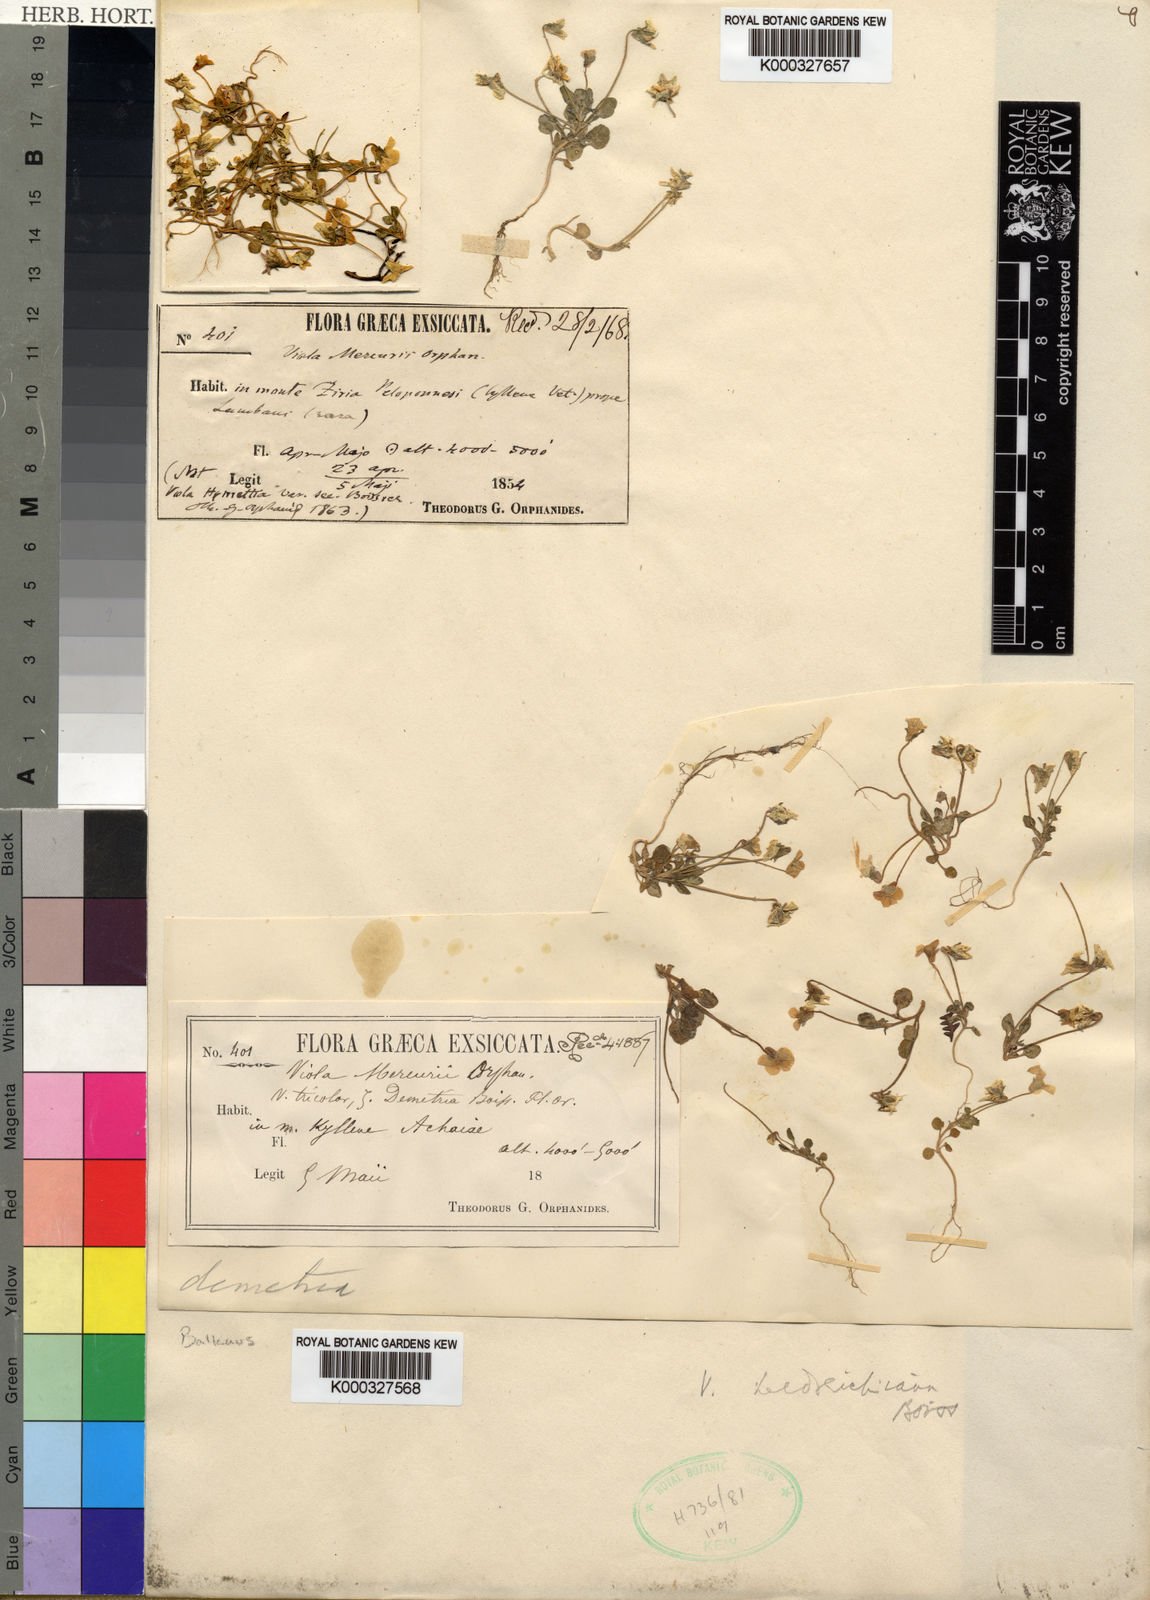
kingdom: Plantae
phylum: Tracheophyta
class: Magnoliopsida
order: Malpighiales
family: Violaceae
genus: Viola
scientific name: Viola
